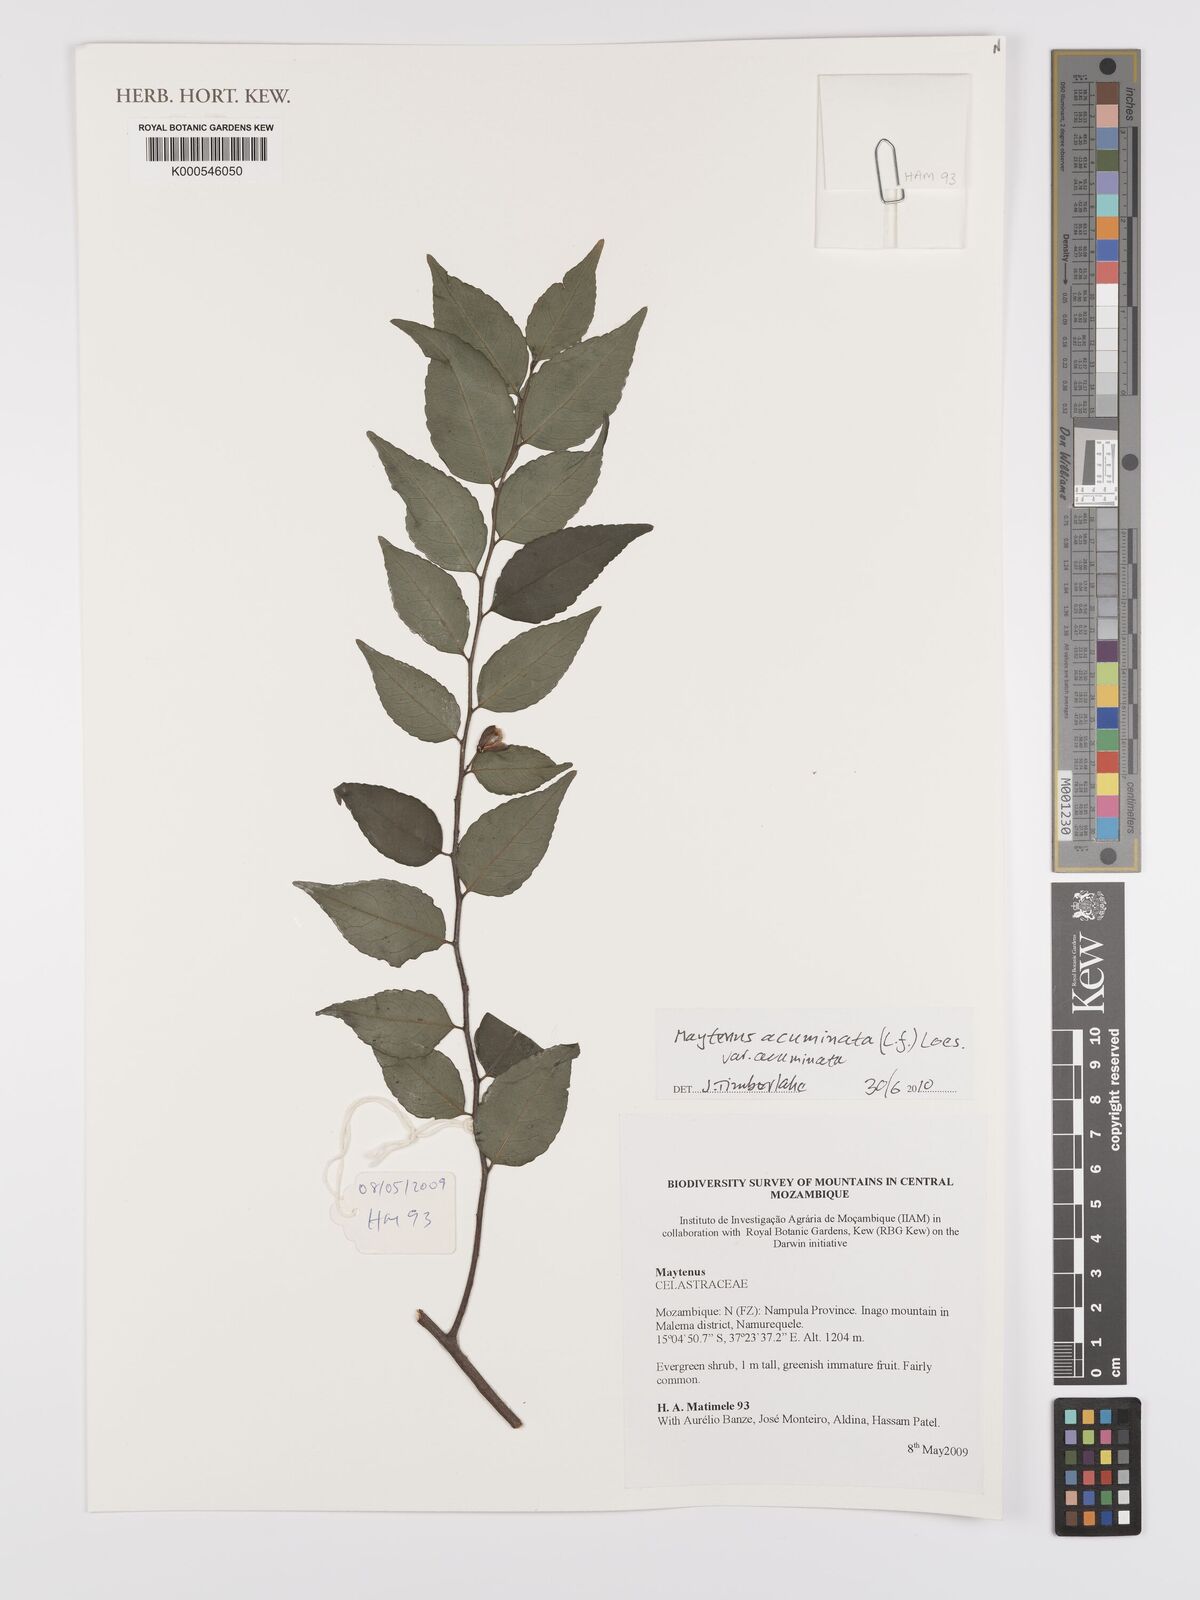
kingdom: Plantae
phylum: Tracheophyta
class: Magnoliopsida
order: Celastrales
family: Celastraceae
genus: Gymnosporia
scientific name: Gymnosporia acuminata
